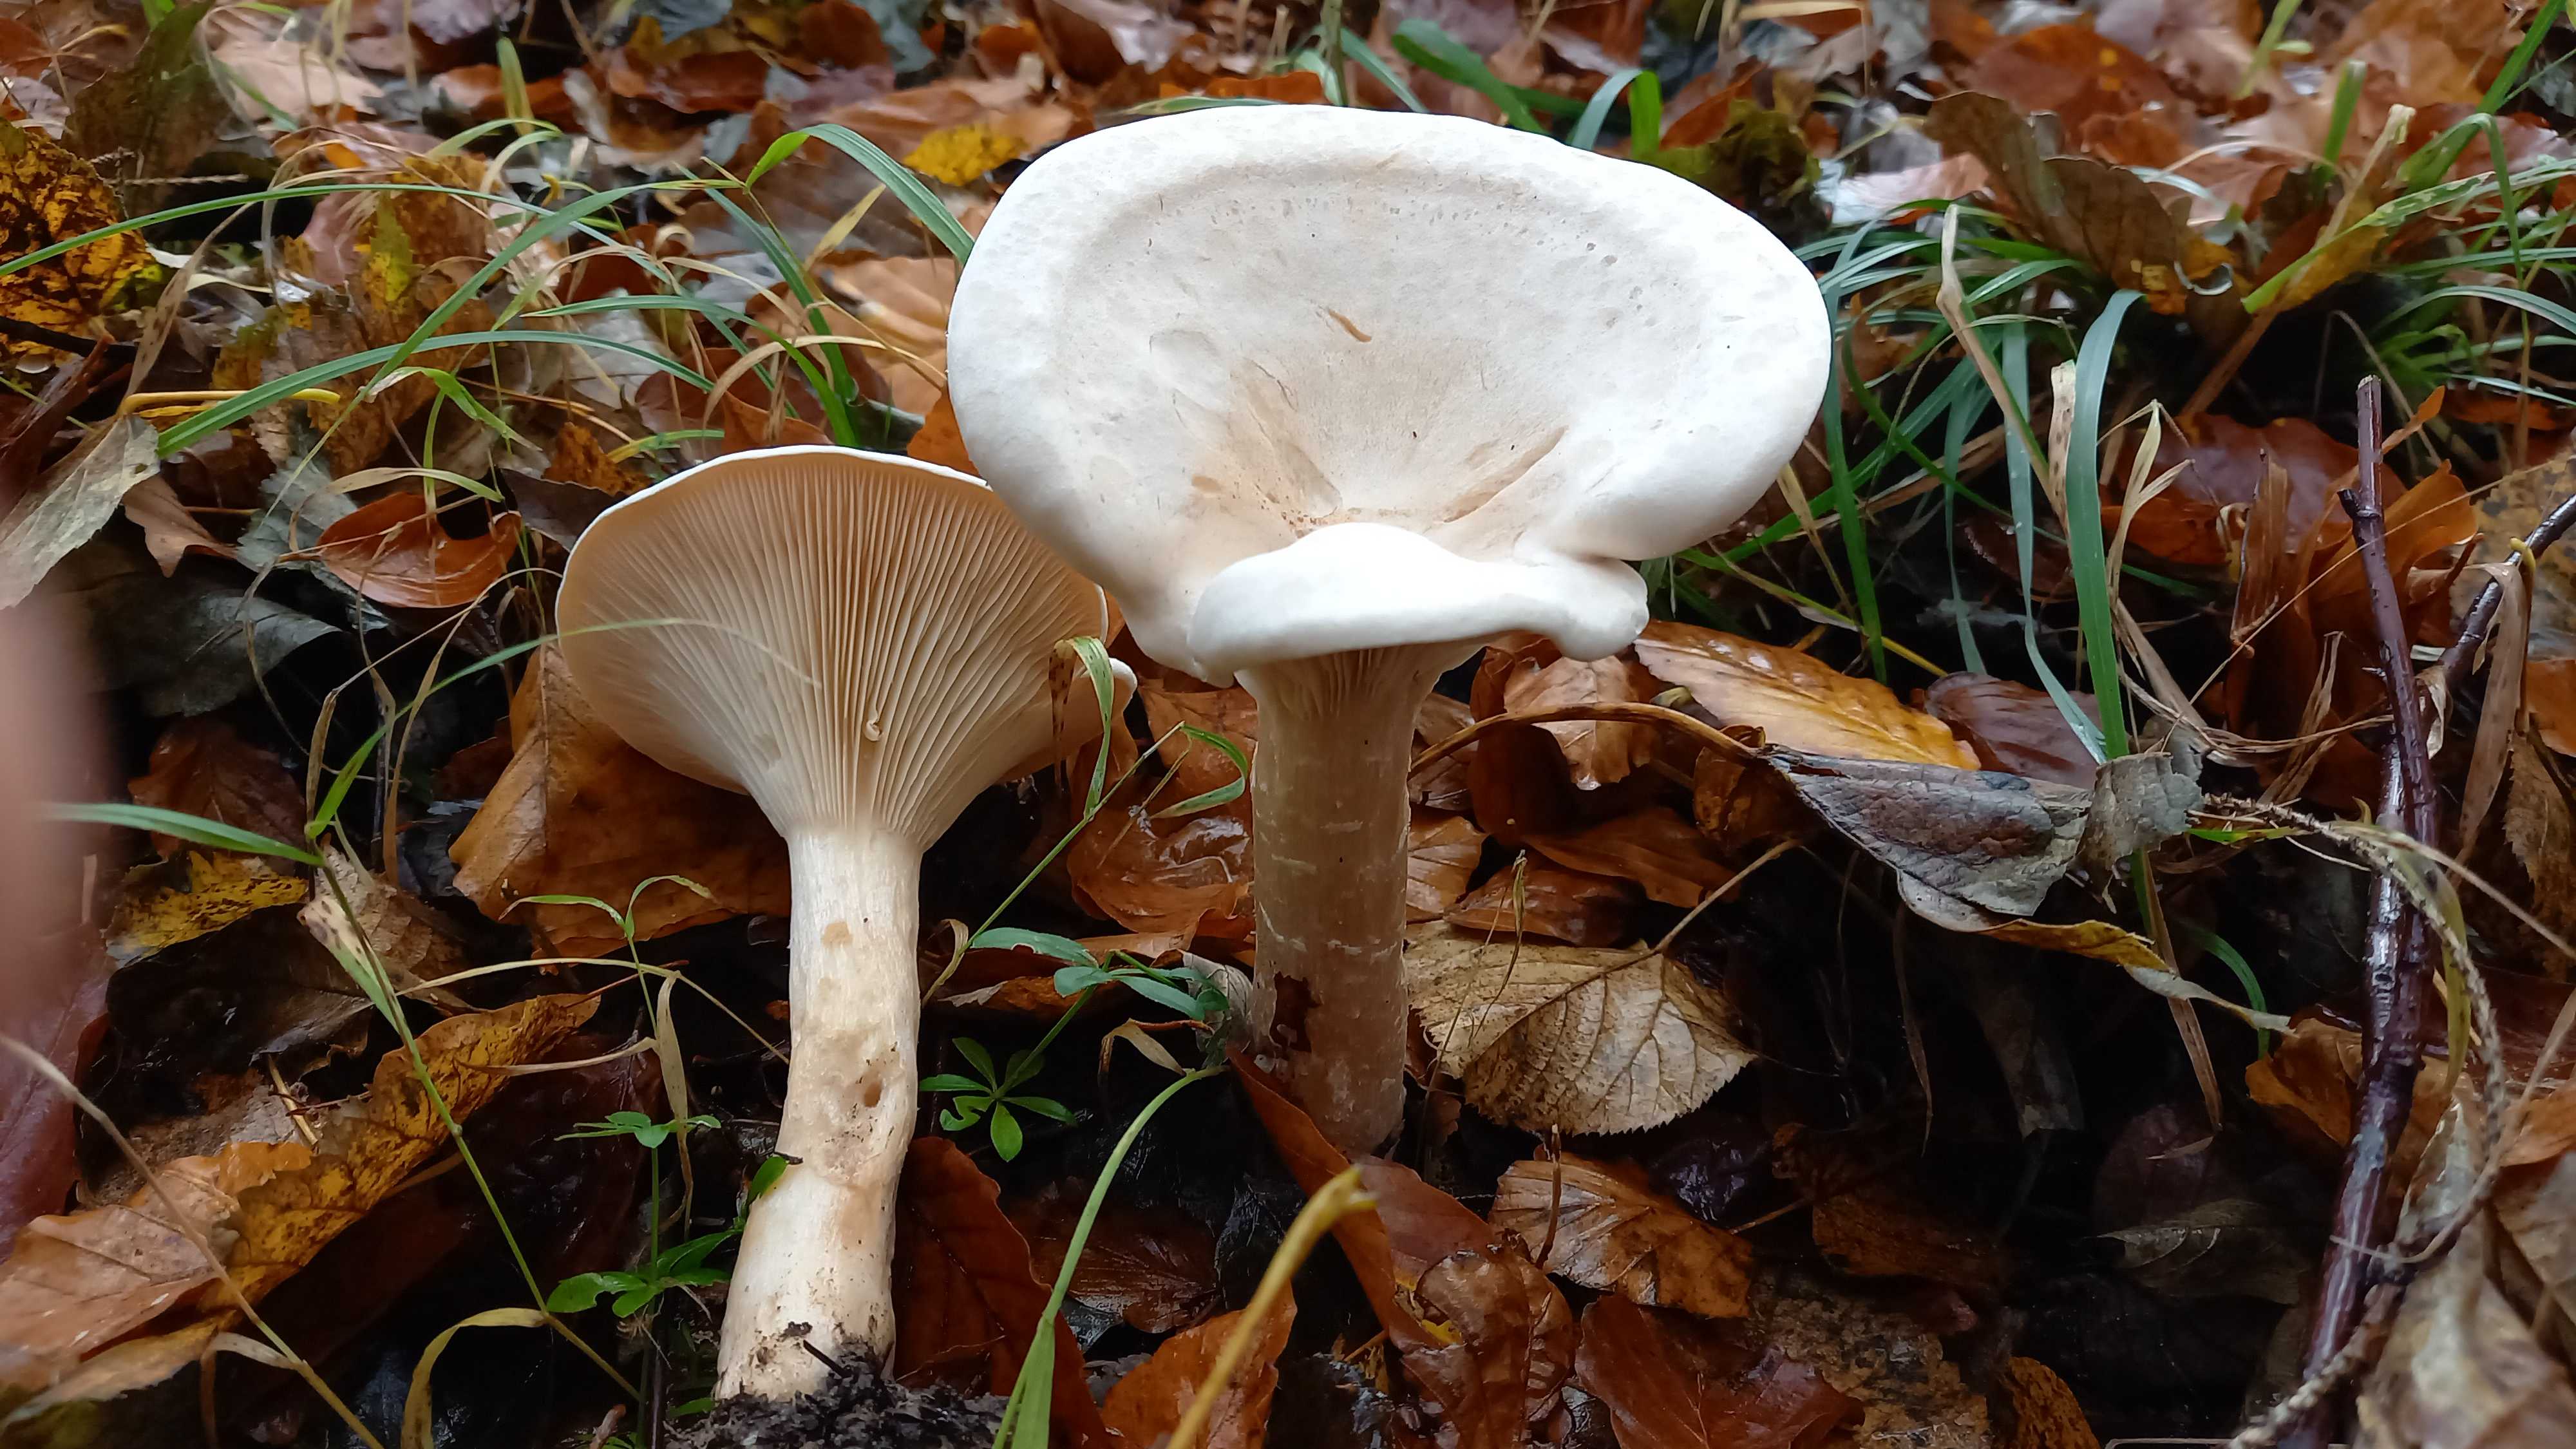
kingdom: Fungi
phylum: Basidiomycota
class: Agaricomycetes
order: Agaricales
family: Tricholomataceae
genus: Infundibulicybe
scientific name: Infundibulicybe geotropa
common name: stor tragthat
